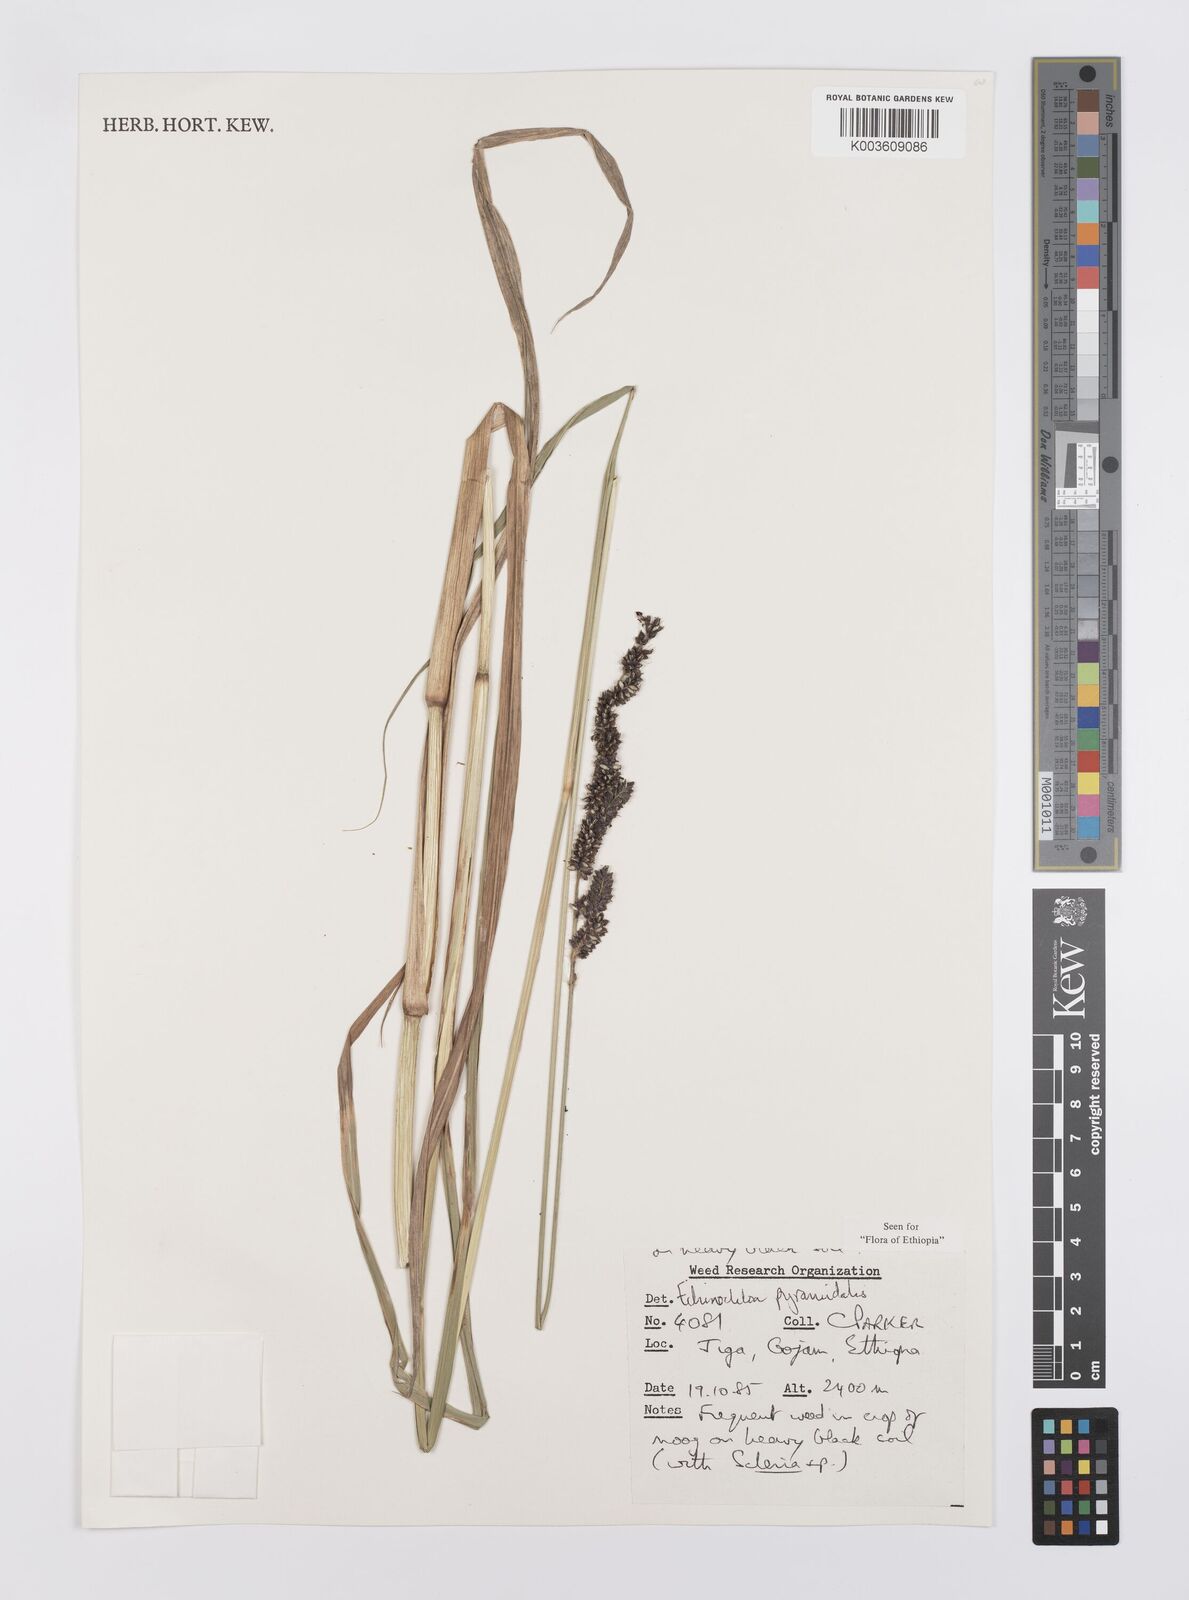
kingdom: Plantae
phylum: Tracheophyta
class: Liliopsida
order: Poales
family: Poaceae
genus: Echinochloa
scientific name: Echinochloa pyramidalis
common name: Antelope grass
